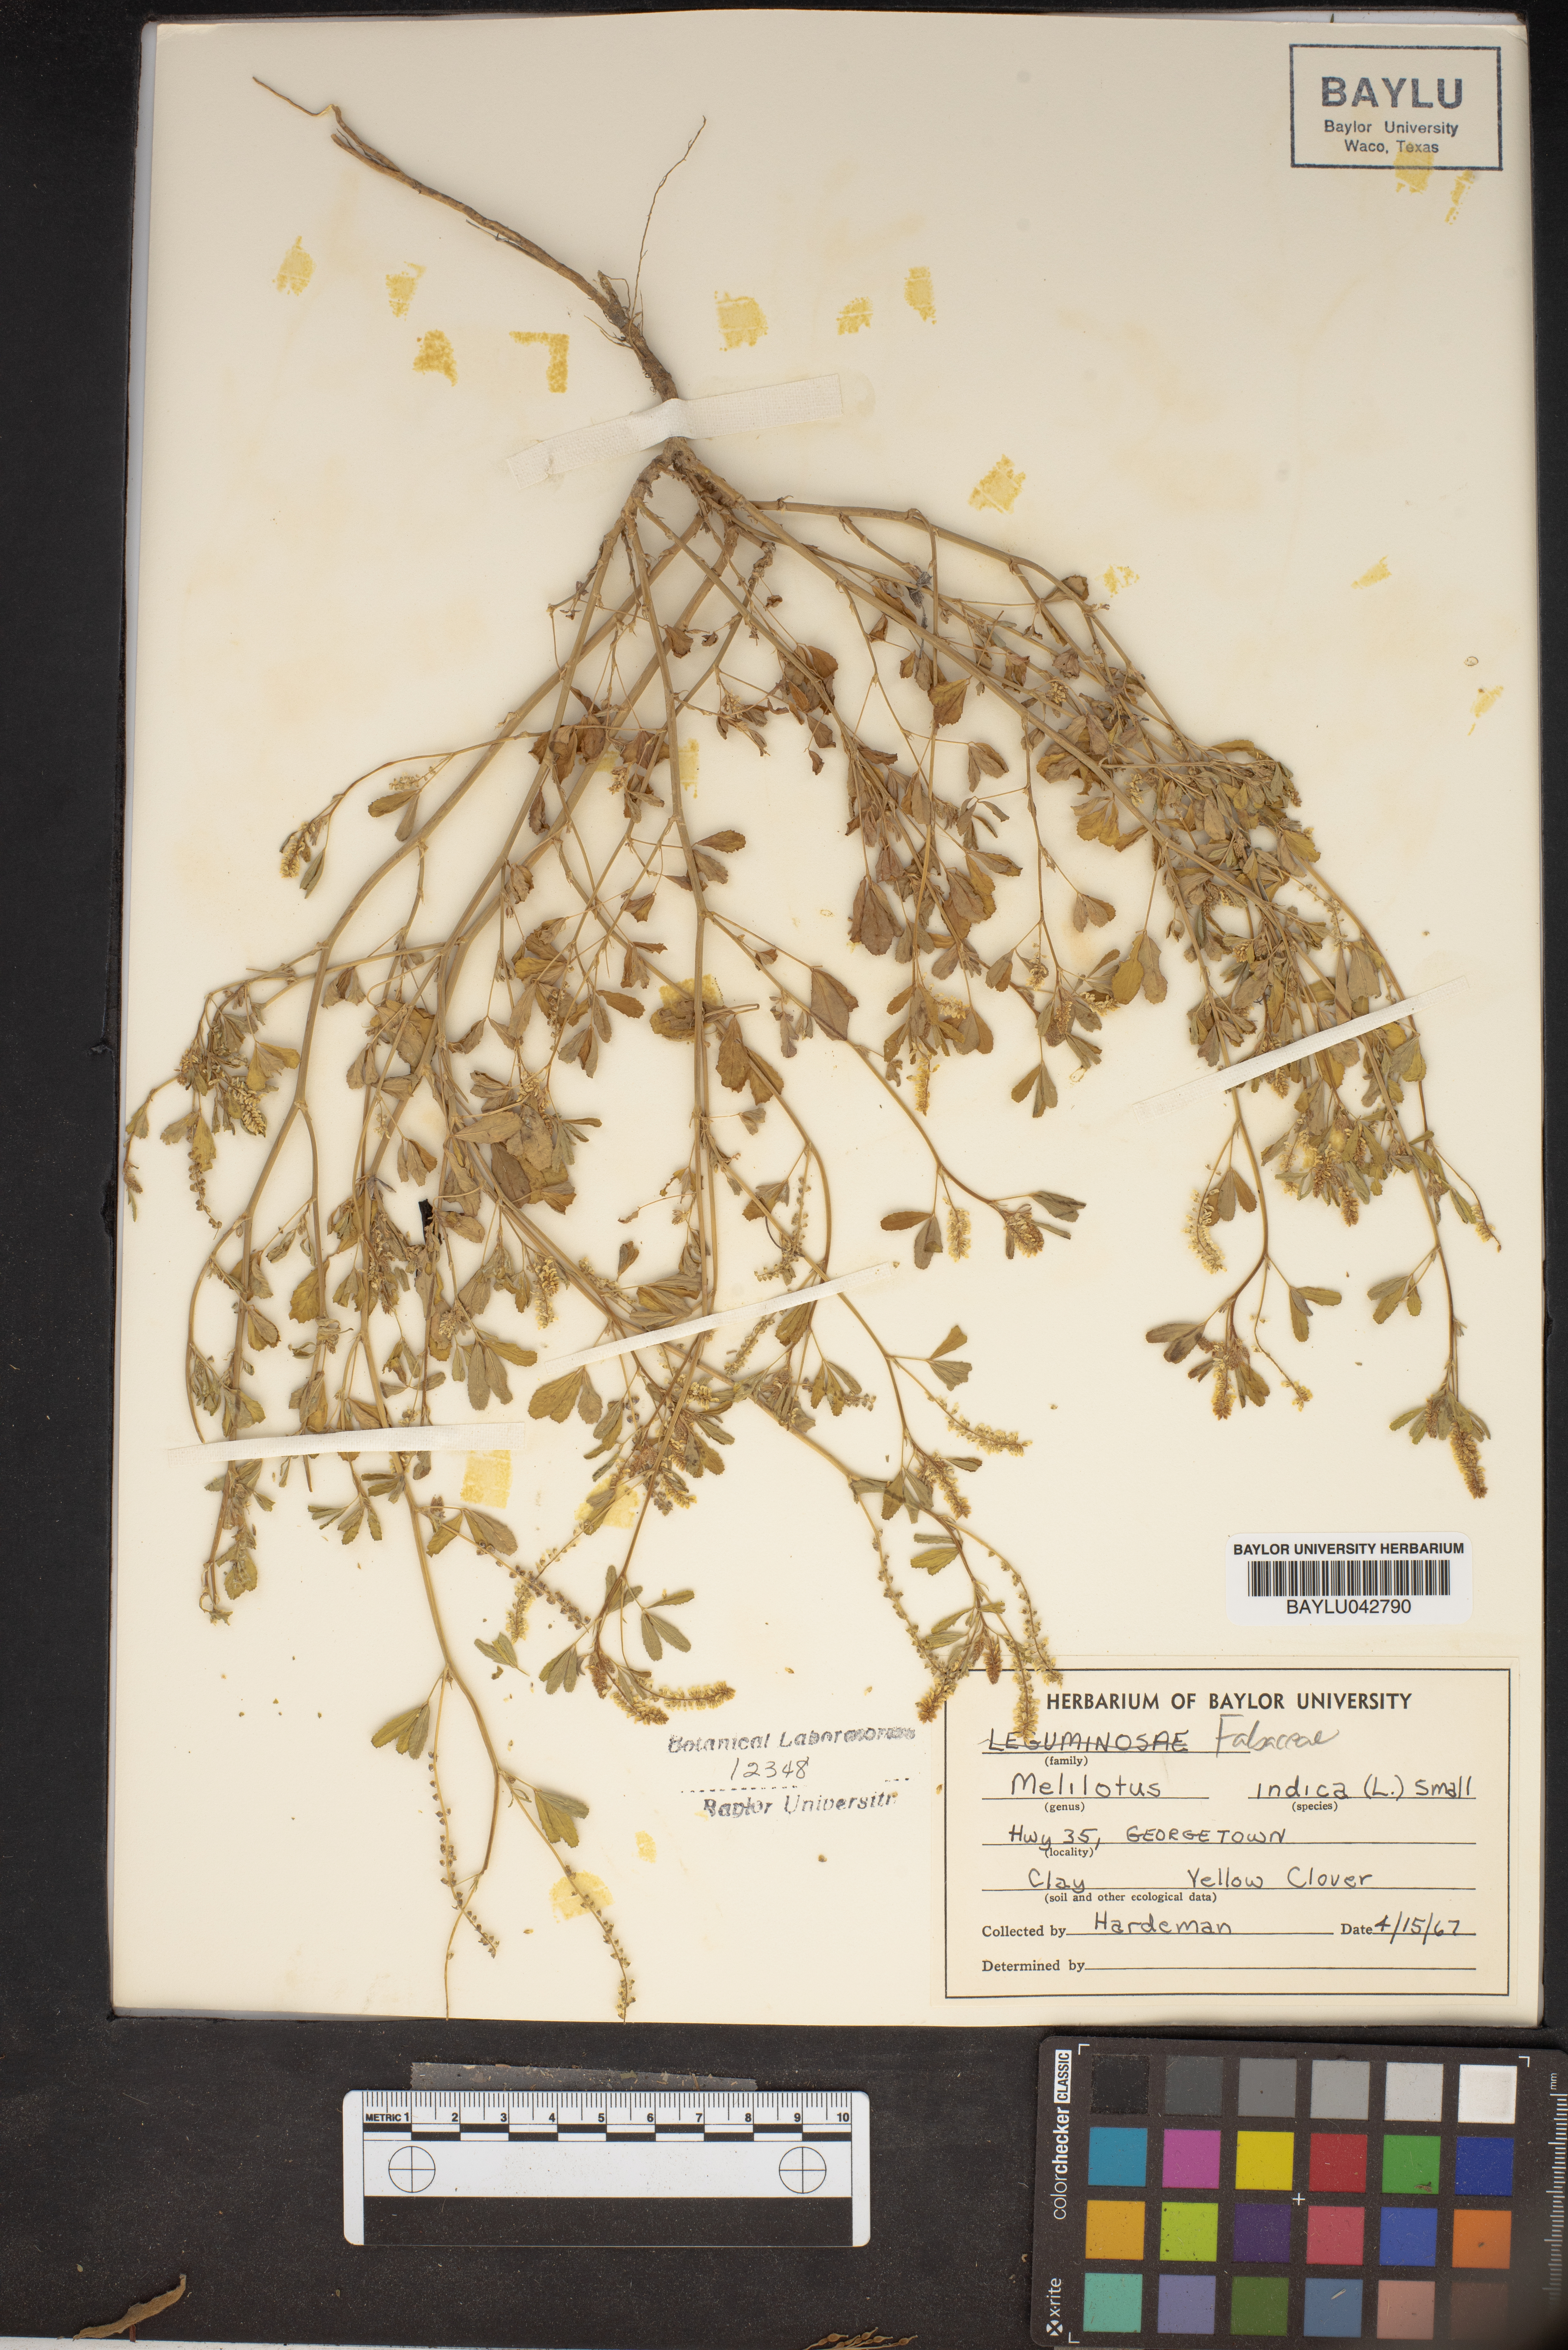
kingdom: Plantae
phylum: Tracheophyta
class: Magnoliopsida
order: Fabales
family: Fabaceae
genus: Melilotus
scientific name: Melilotus indicus
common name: Small melilot
